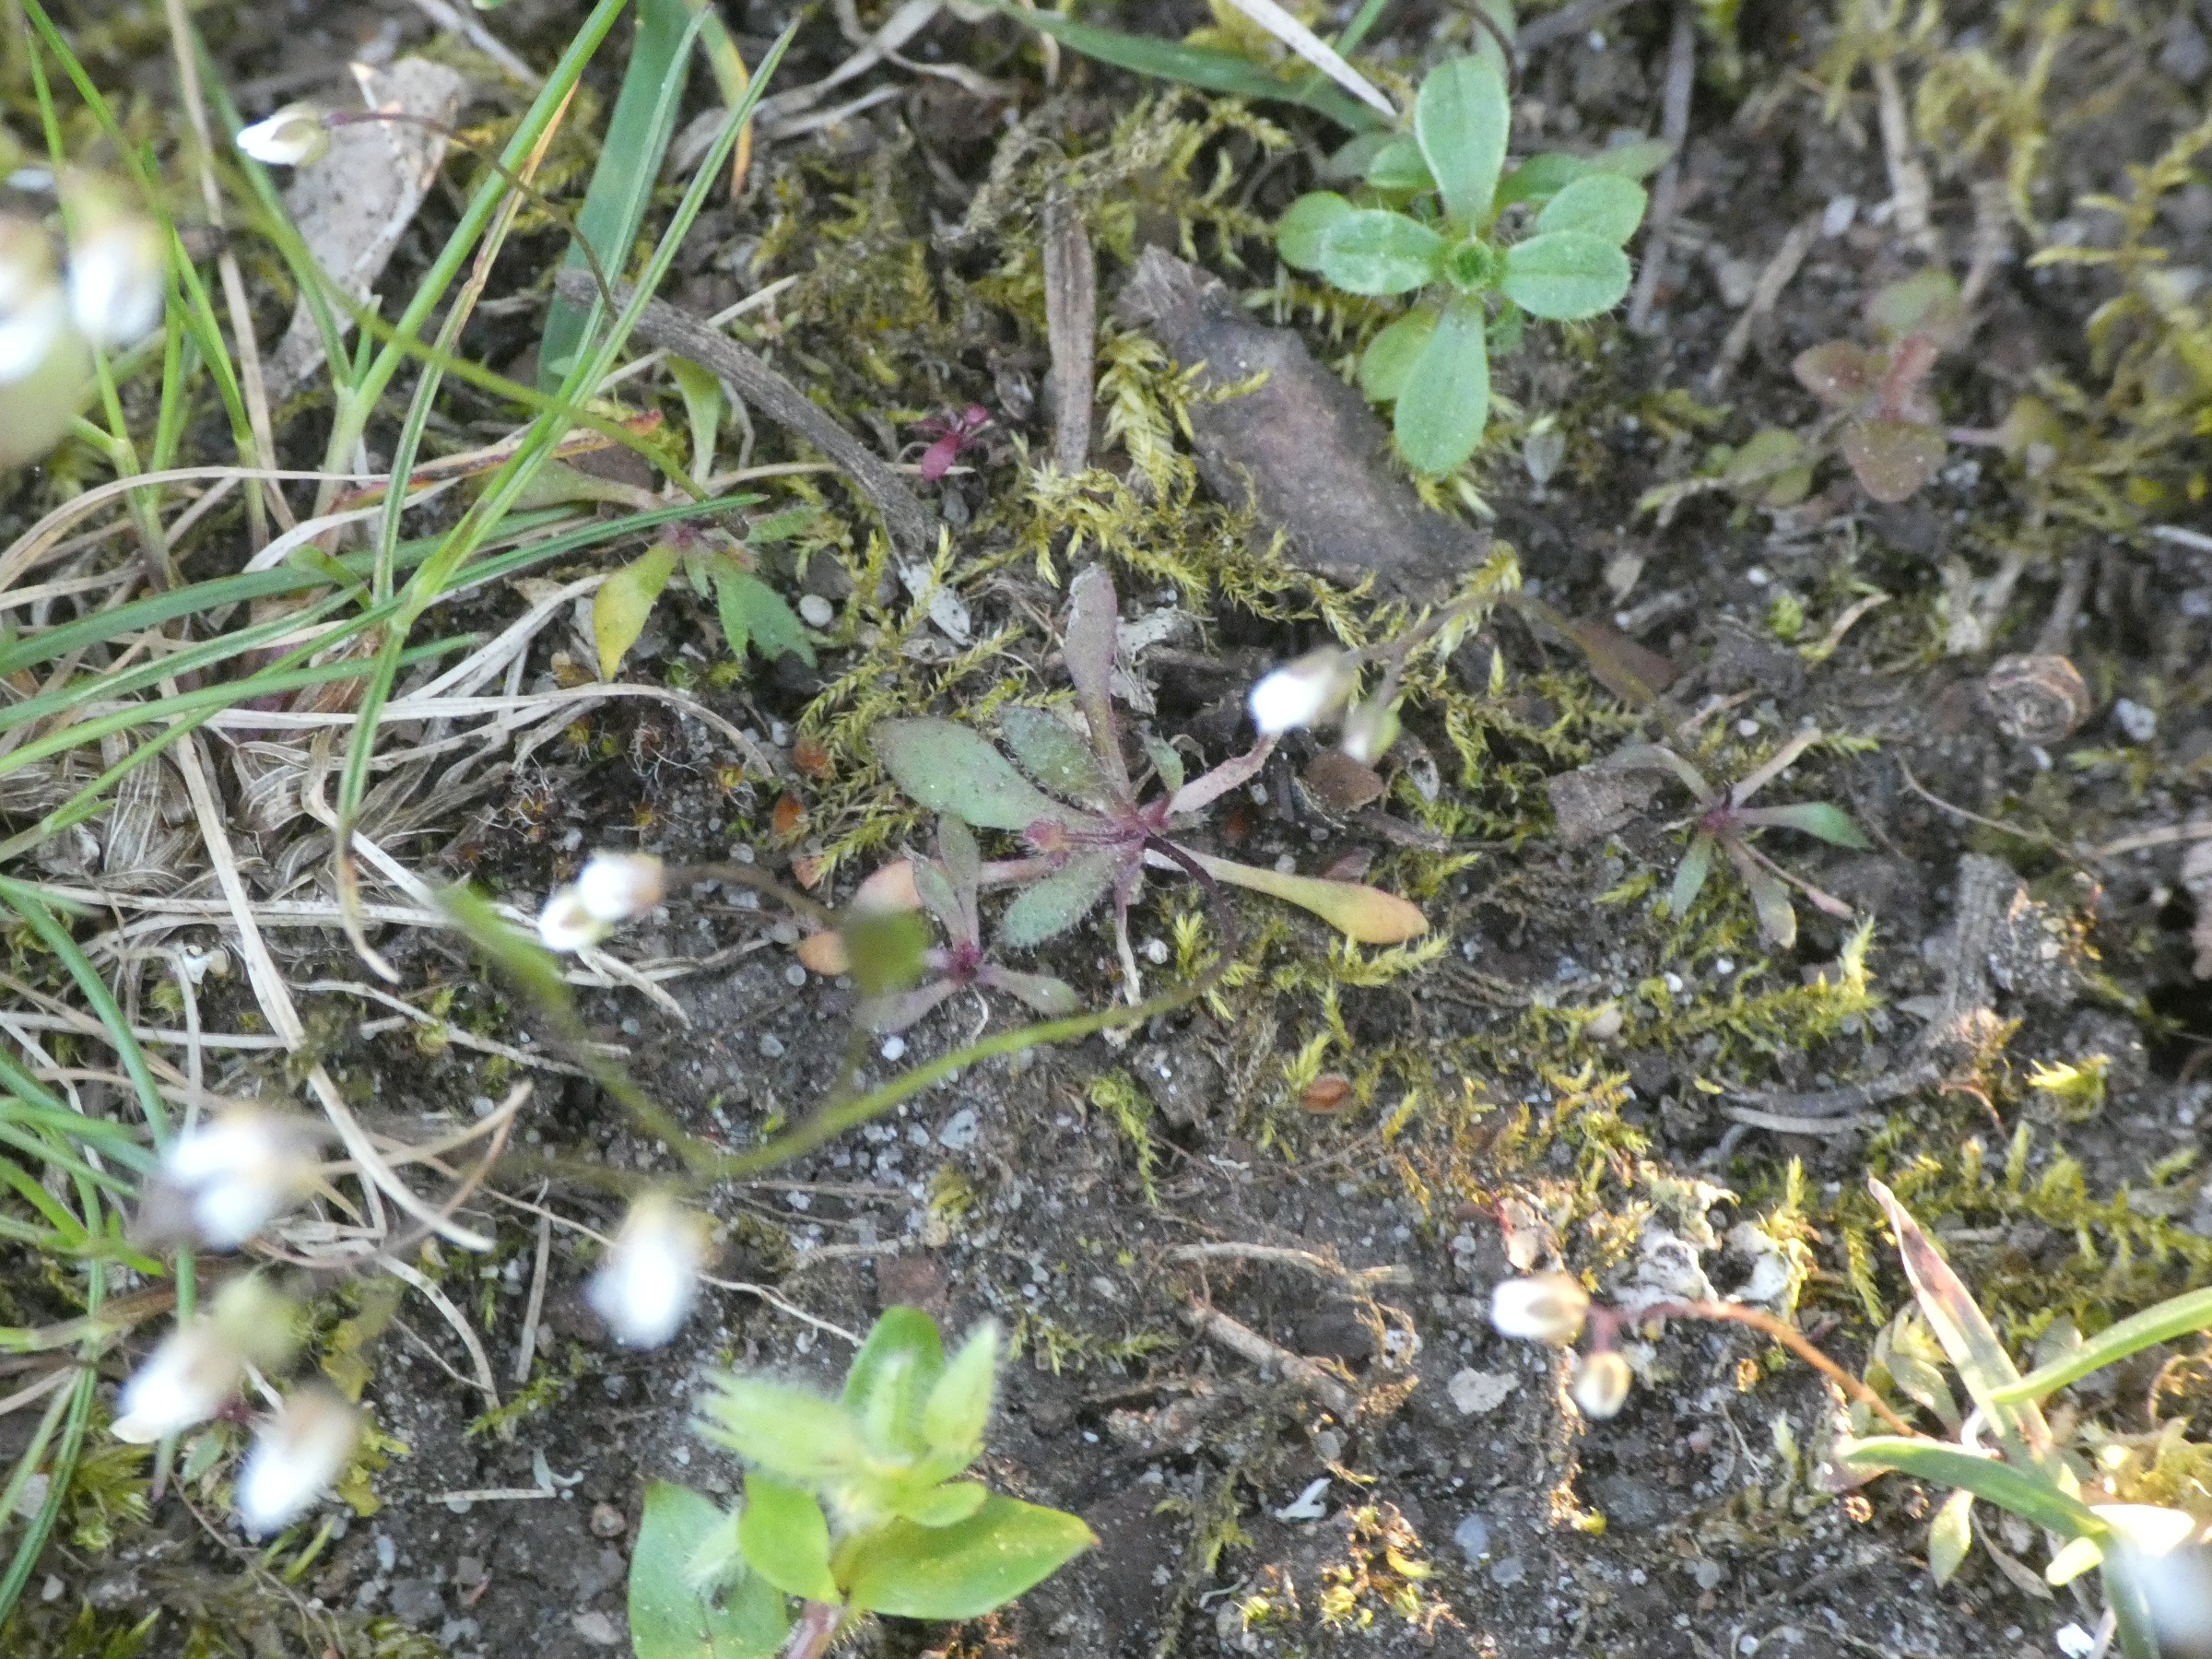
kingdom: Plantae
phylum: Tracheophyta
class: Magnoliopsida
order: Brassicales
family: Brassicaceae
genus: Draba
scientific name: Draba verna
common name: Vår-gæslingeblomst
